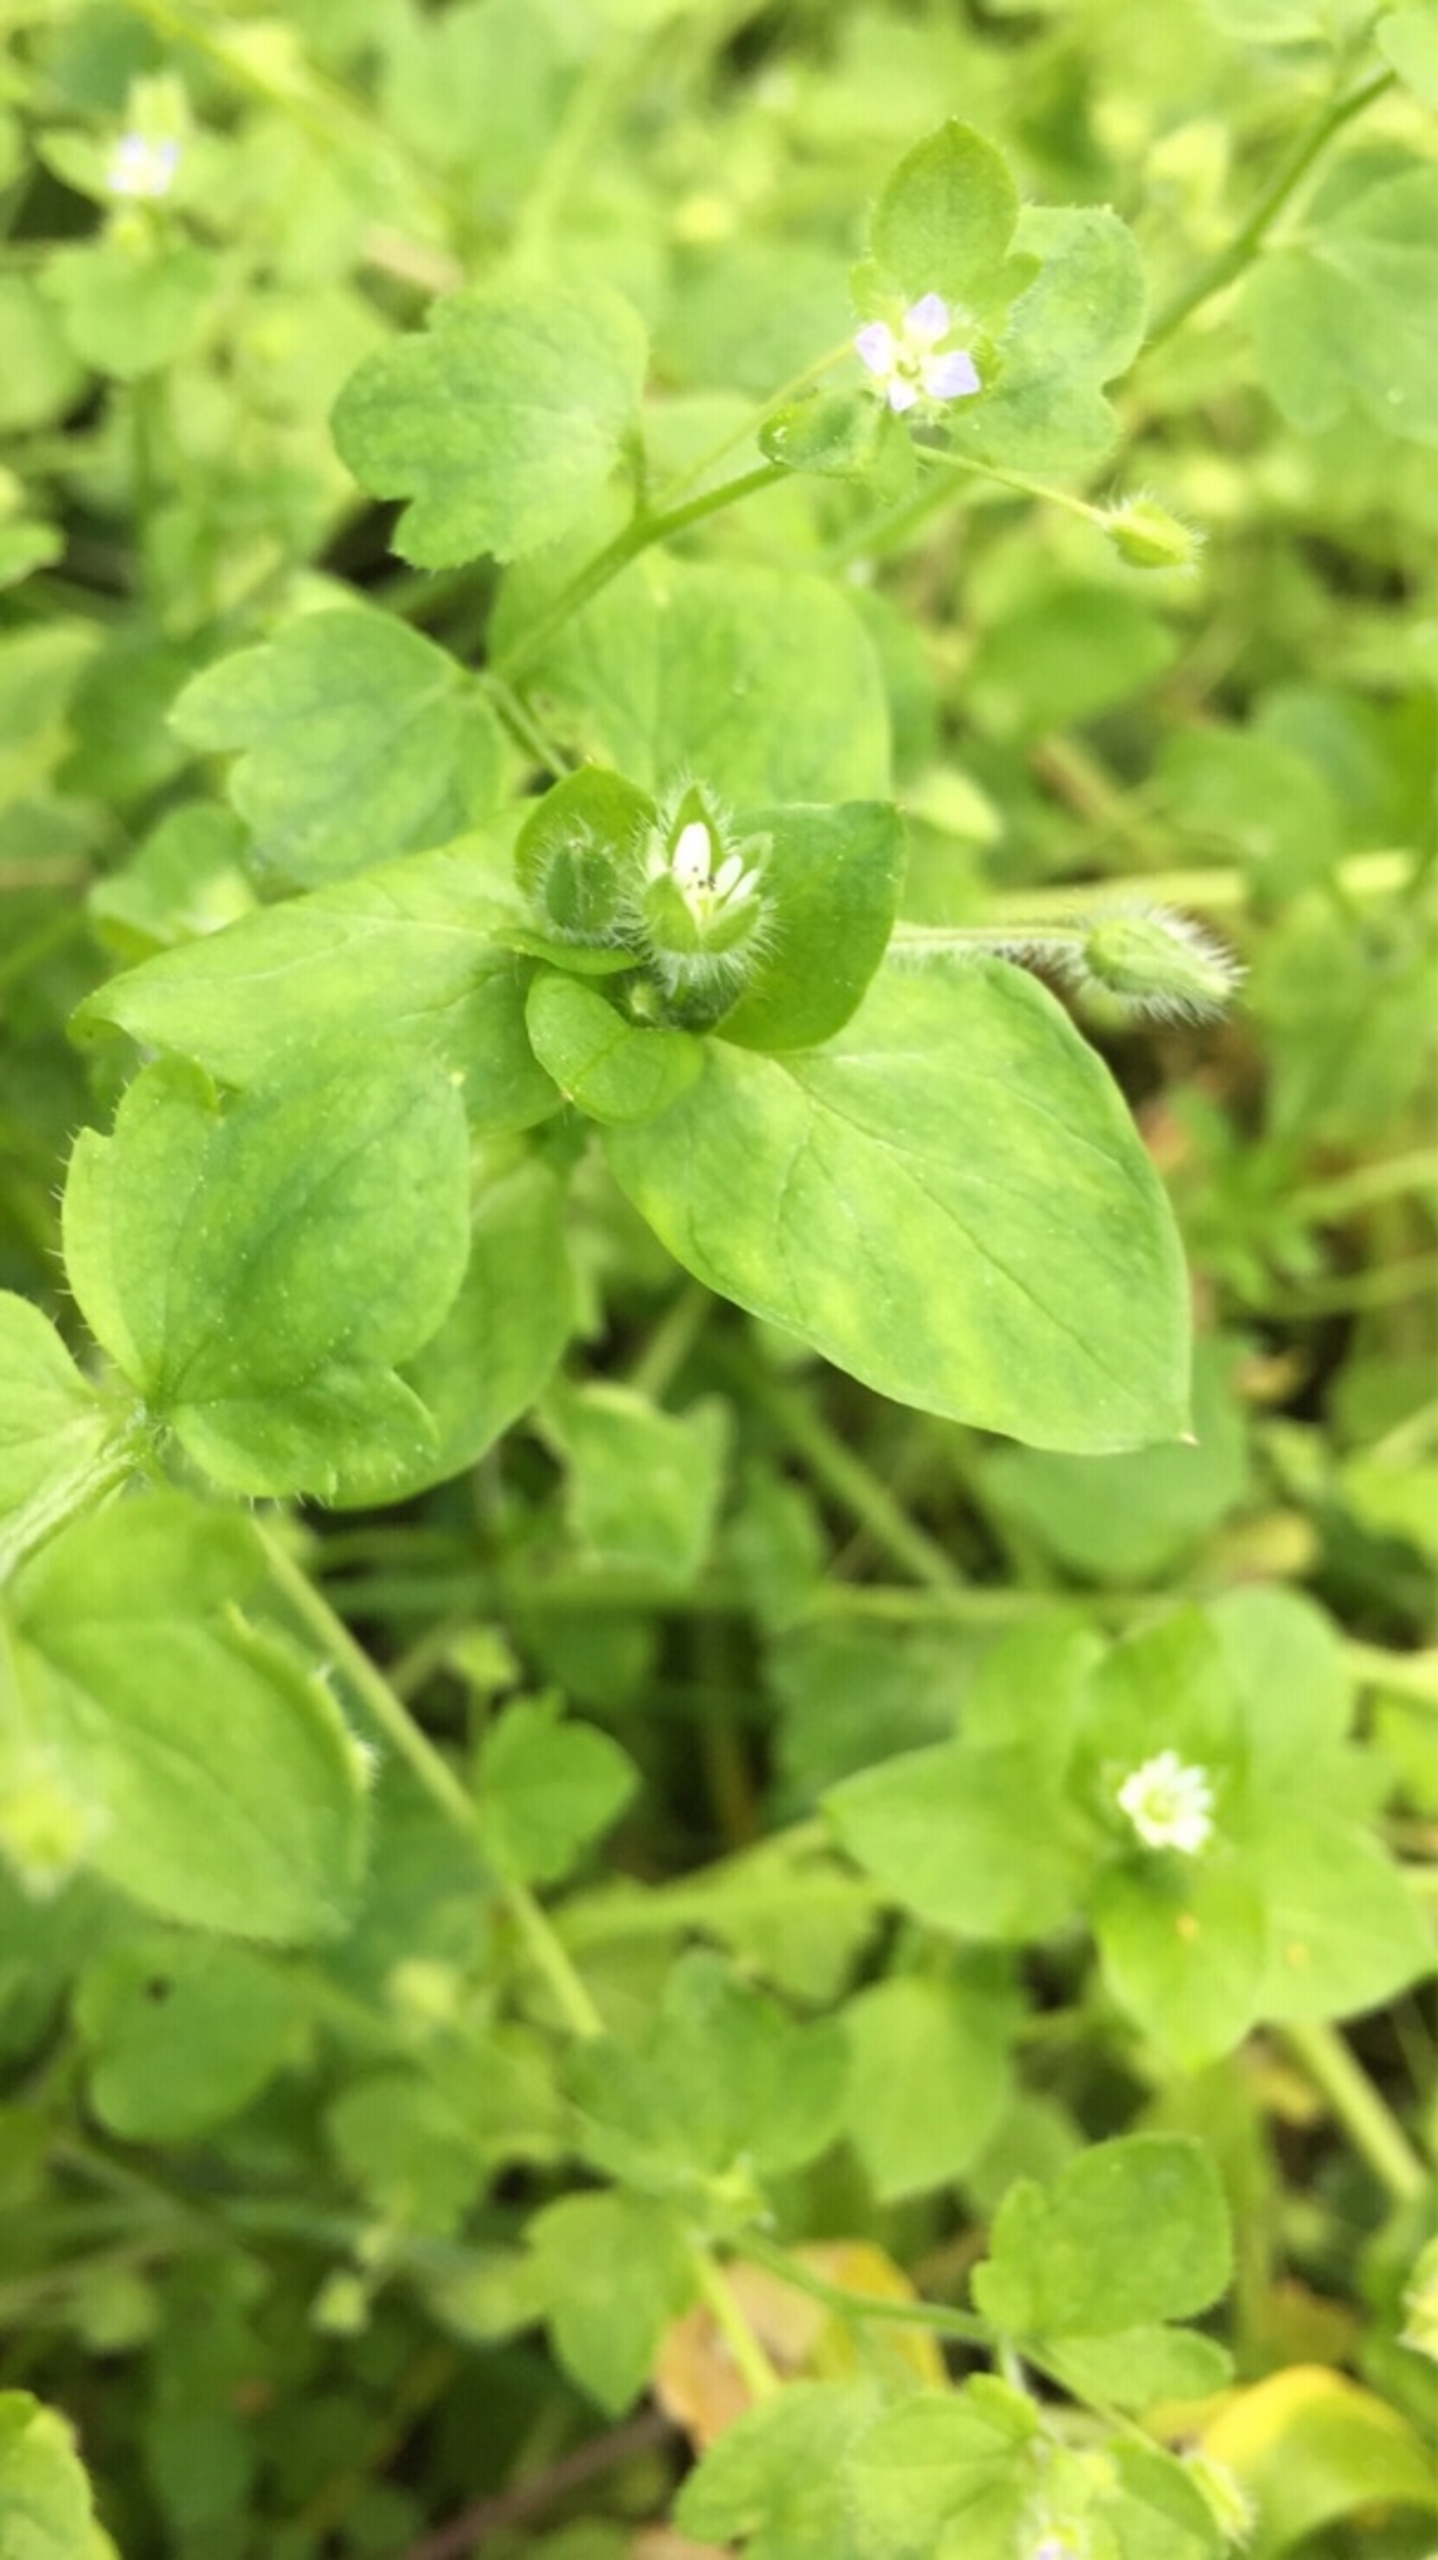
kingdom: Plantae
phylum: Tracheophyta
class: Magnoliopsida
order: Caryophyllales
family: Caryophyllaceae
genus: Stellaria
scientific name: Stellaria media
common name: Almindelig fuglegræs
